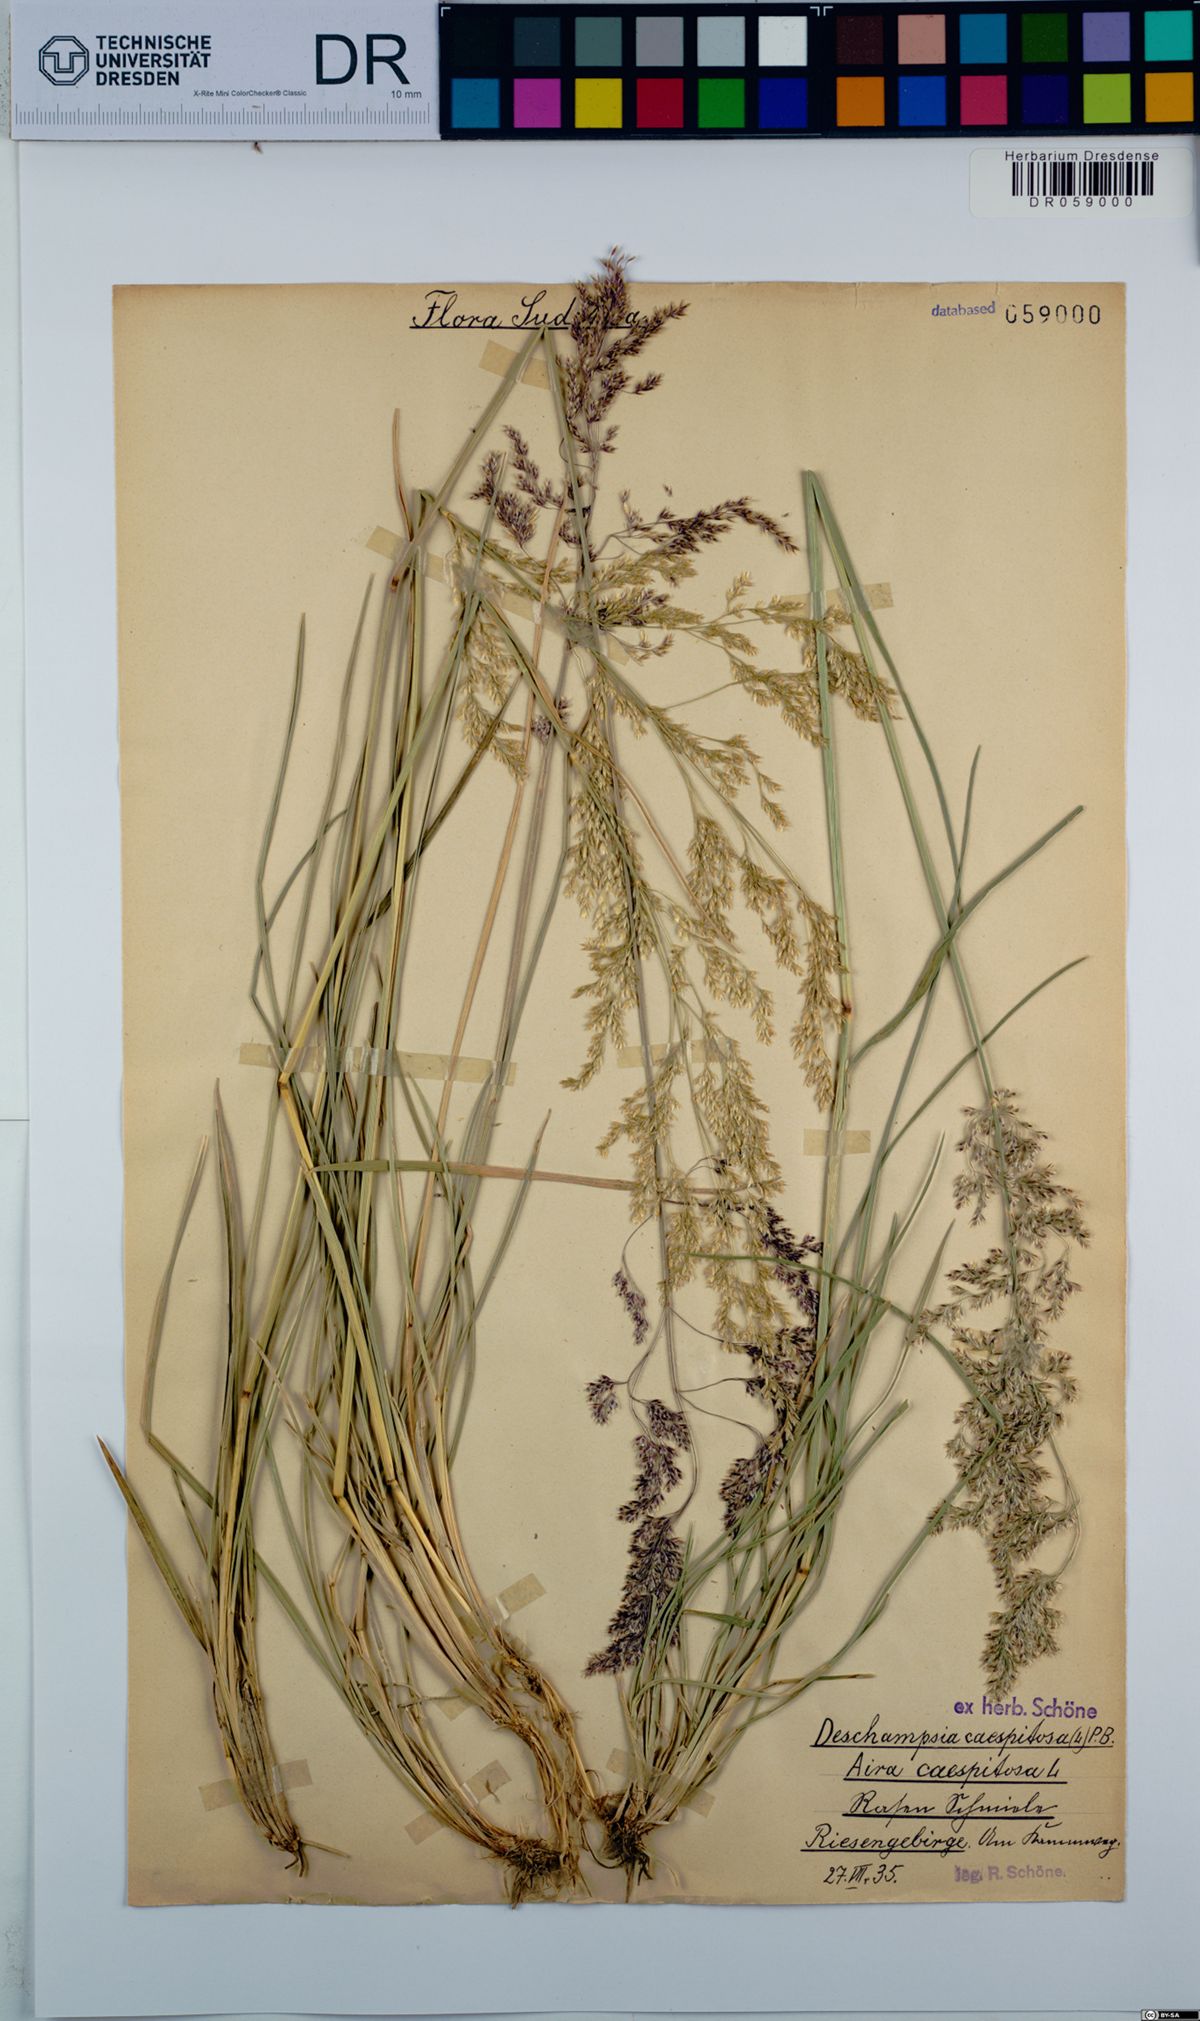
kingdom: Plantae
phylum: Tracheophyta
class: Liliopsida
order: Poales
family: Poaceae
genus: Deschampsia
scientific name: Deschampsia cespitosa
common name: Tufted hair-grass
